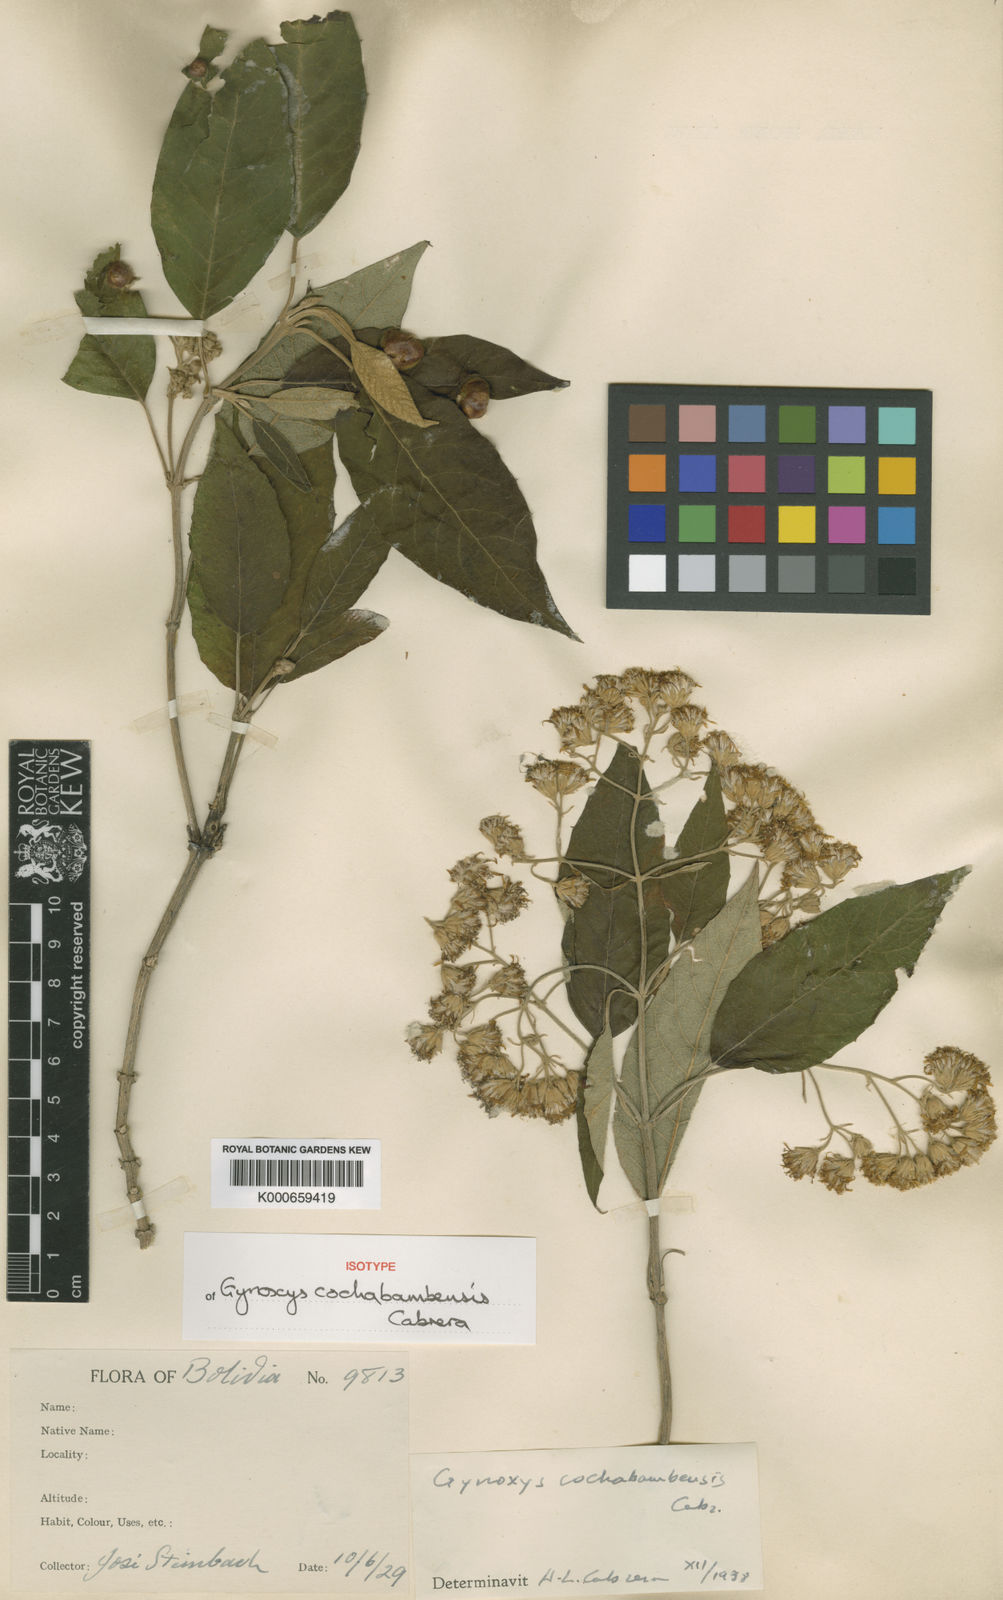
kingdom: Plantae
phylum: Tracheophyta
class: Magnoliopsida
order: Asterales
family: Asteraceae
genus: Gynoxys
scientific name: Gynoxys cochabambensis
